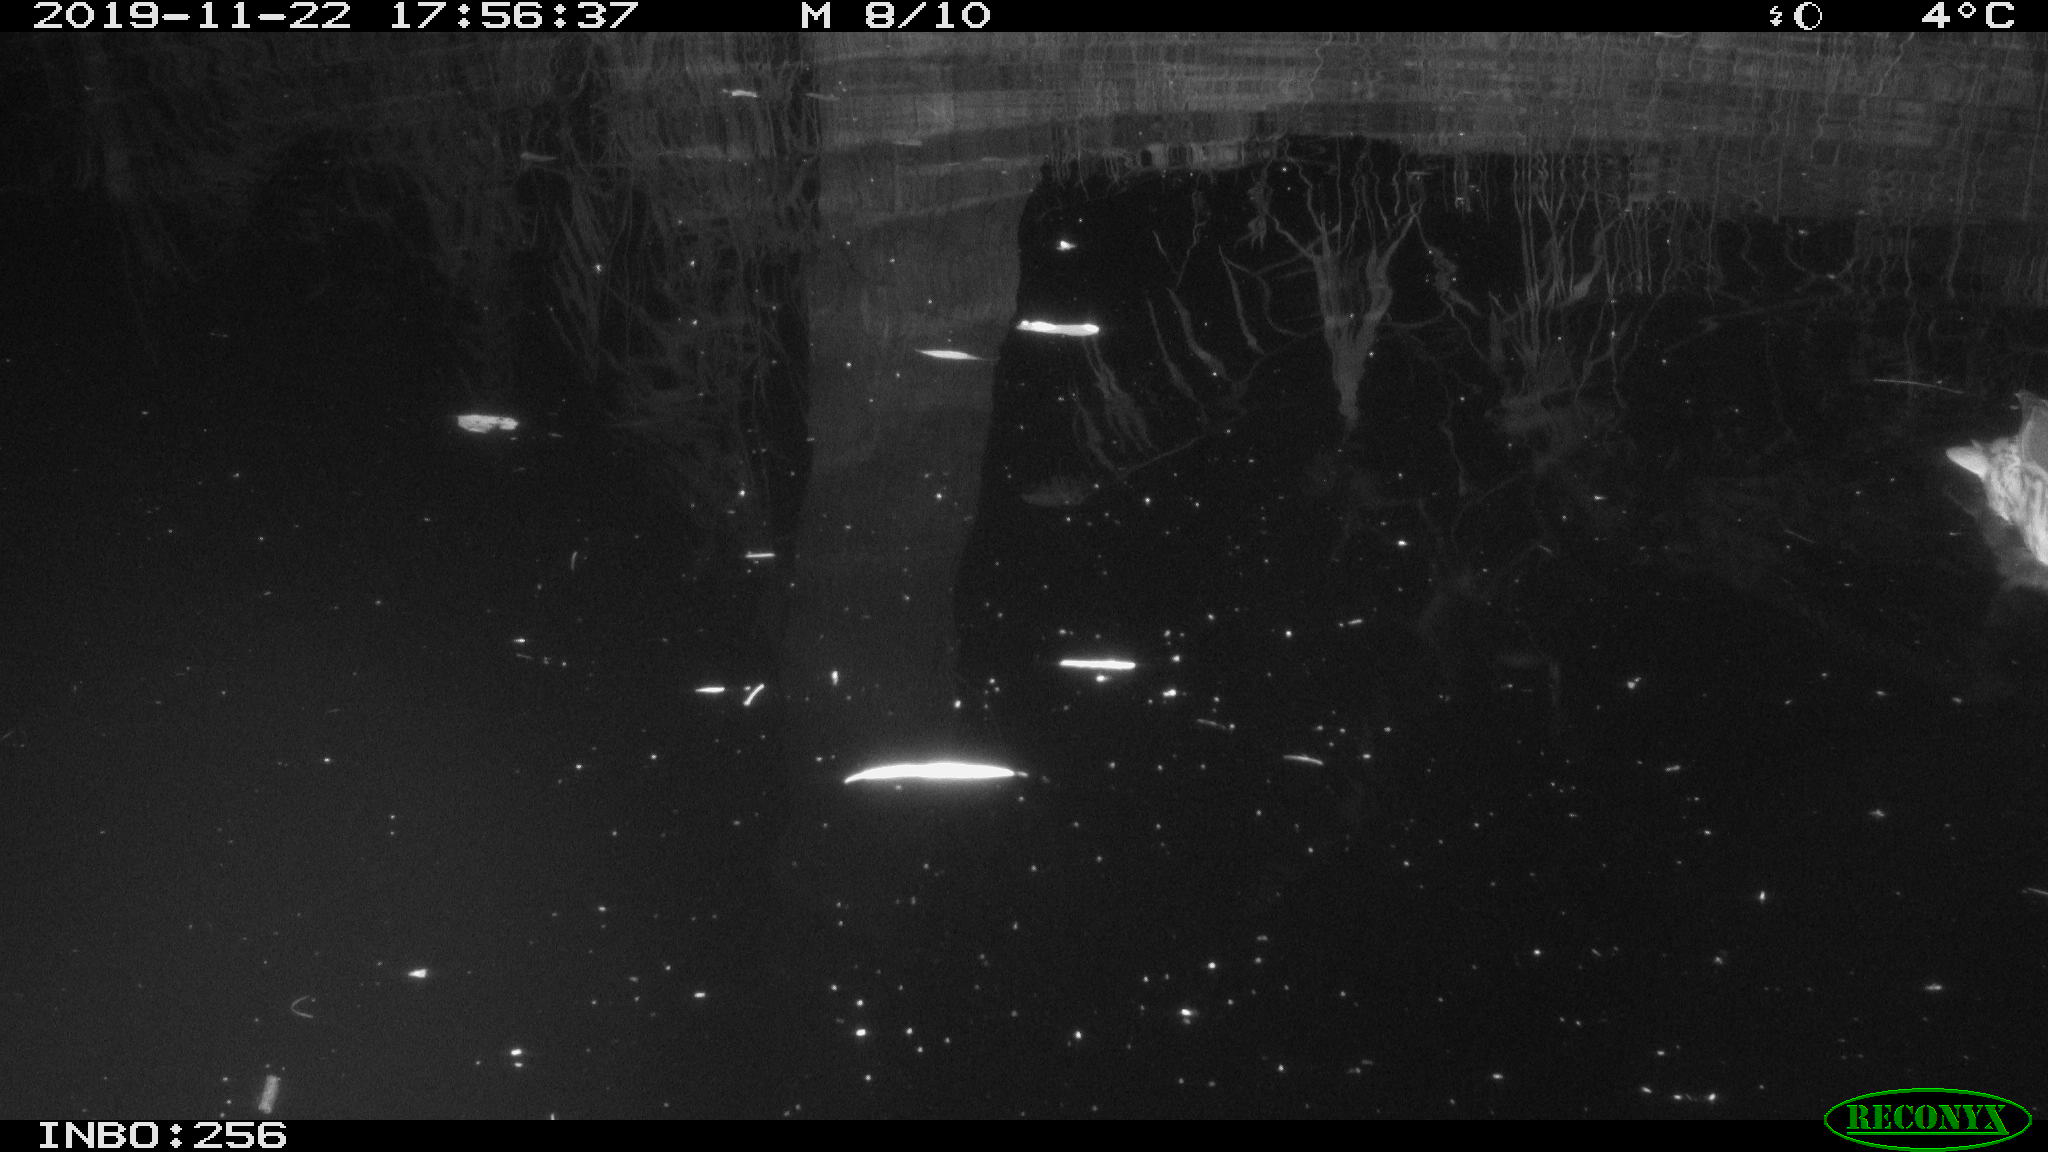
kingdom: Animalia
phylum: Chordata
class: Aves
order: Anseriformes
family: Anatidae
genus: Anas
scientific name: Anas platyrhynchos
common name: Mallard
